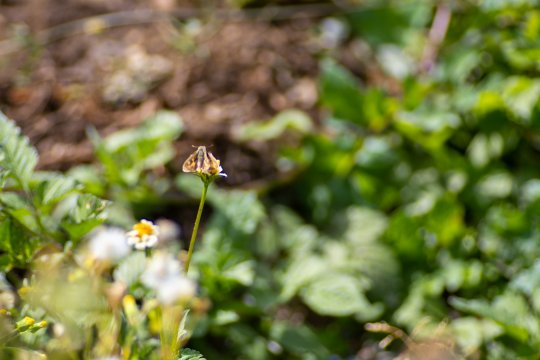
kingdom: Animalia
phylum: Arthropoda
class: Insecta
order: Lepidoptera
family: Hesperiidae
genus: Hylephila
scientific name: Hylephila phyleus
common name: Fiery Skipper
